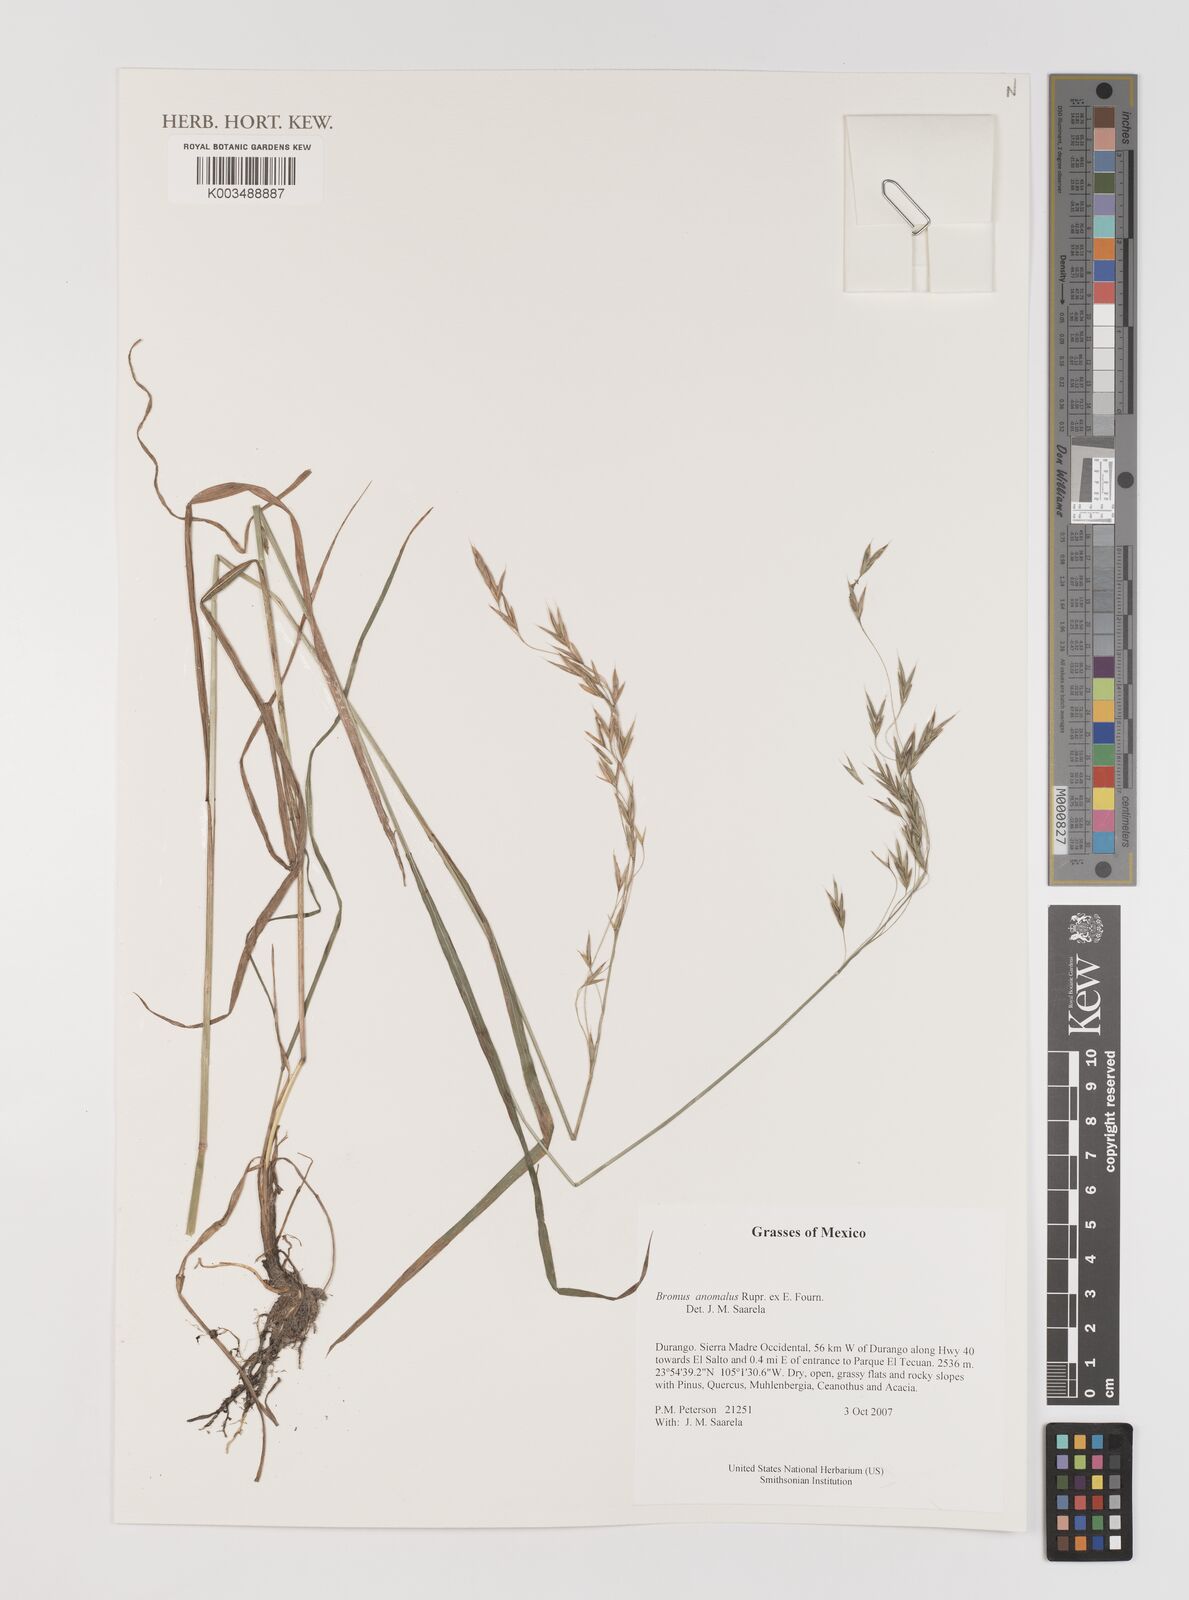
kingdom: Plantae
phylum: Tracheophyta
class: Liliopsida
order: Poales
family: Poaceae
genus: Bromus
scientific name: Bromus anomalus
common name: Nodding brome
